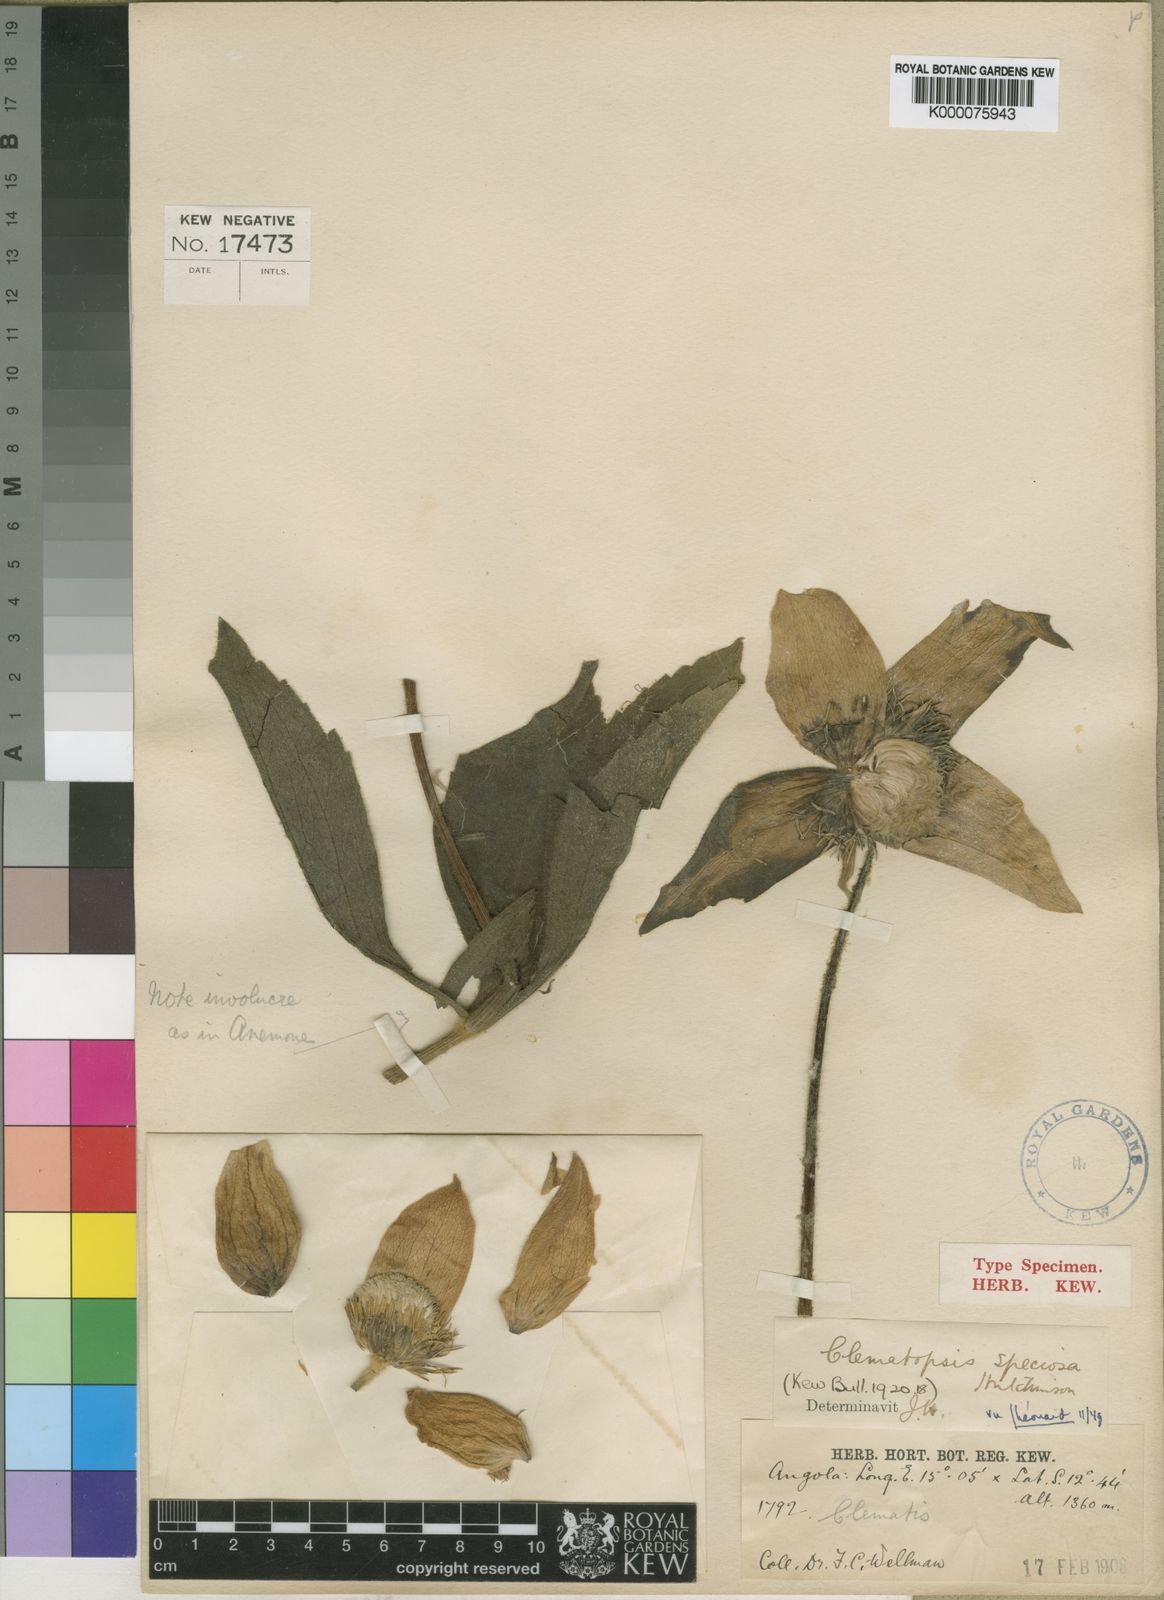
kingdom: Plantae
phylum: Tracheophyta
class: Magnoliopsida
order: Ranunculales
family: Ranunculaceae
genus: Clematis
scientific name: Clematis chrysocarpa
